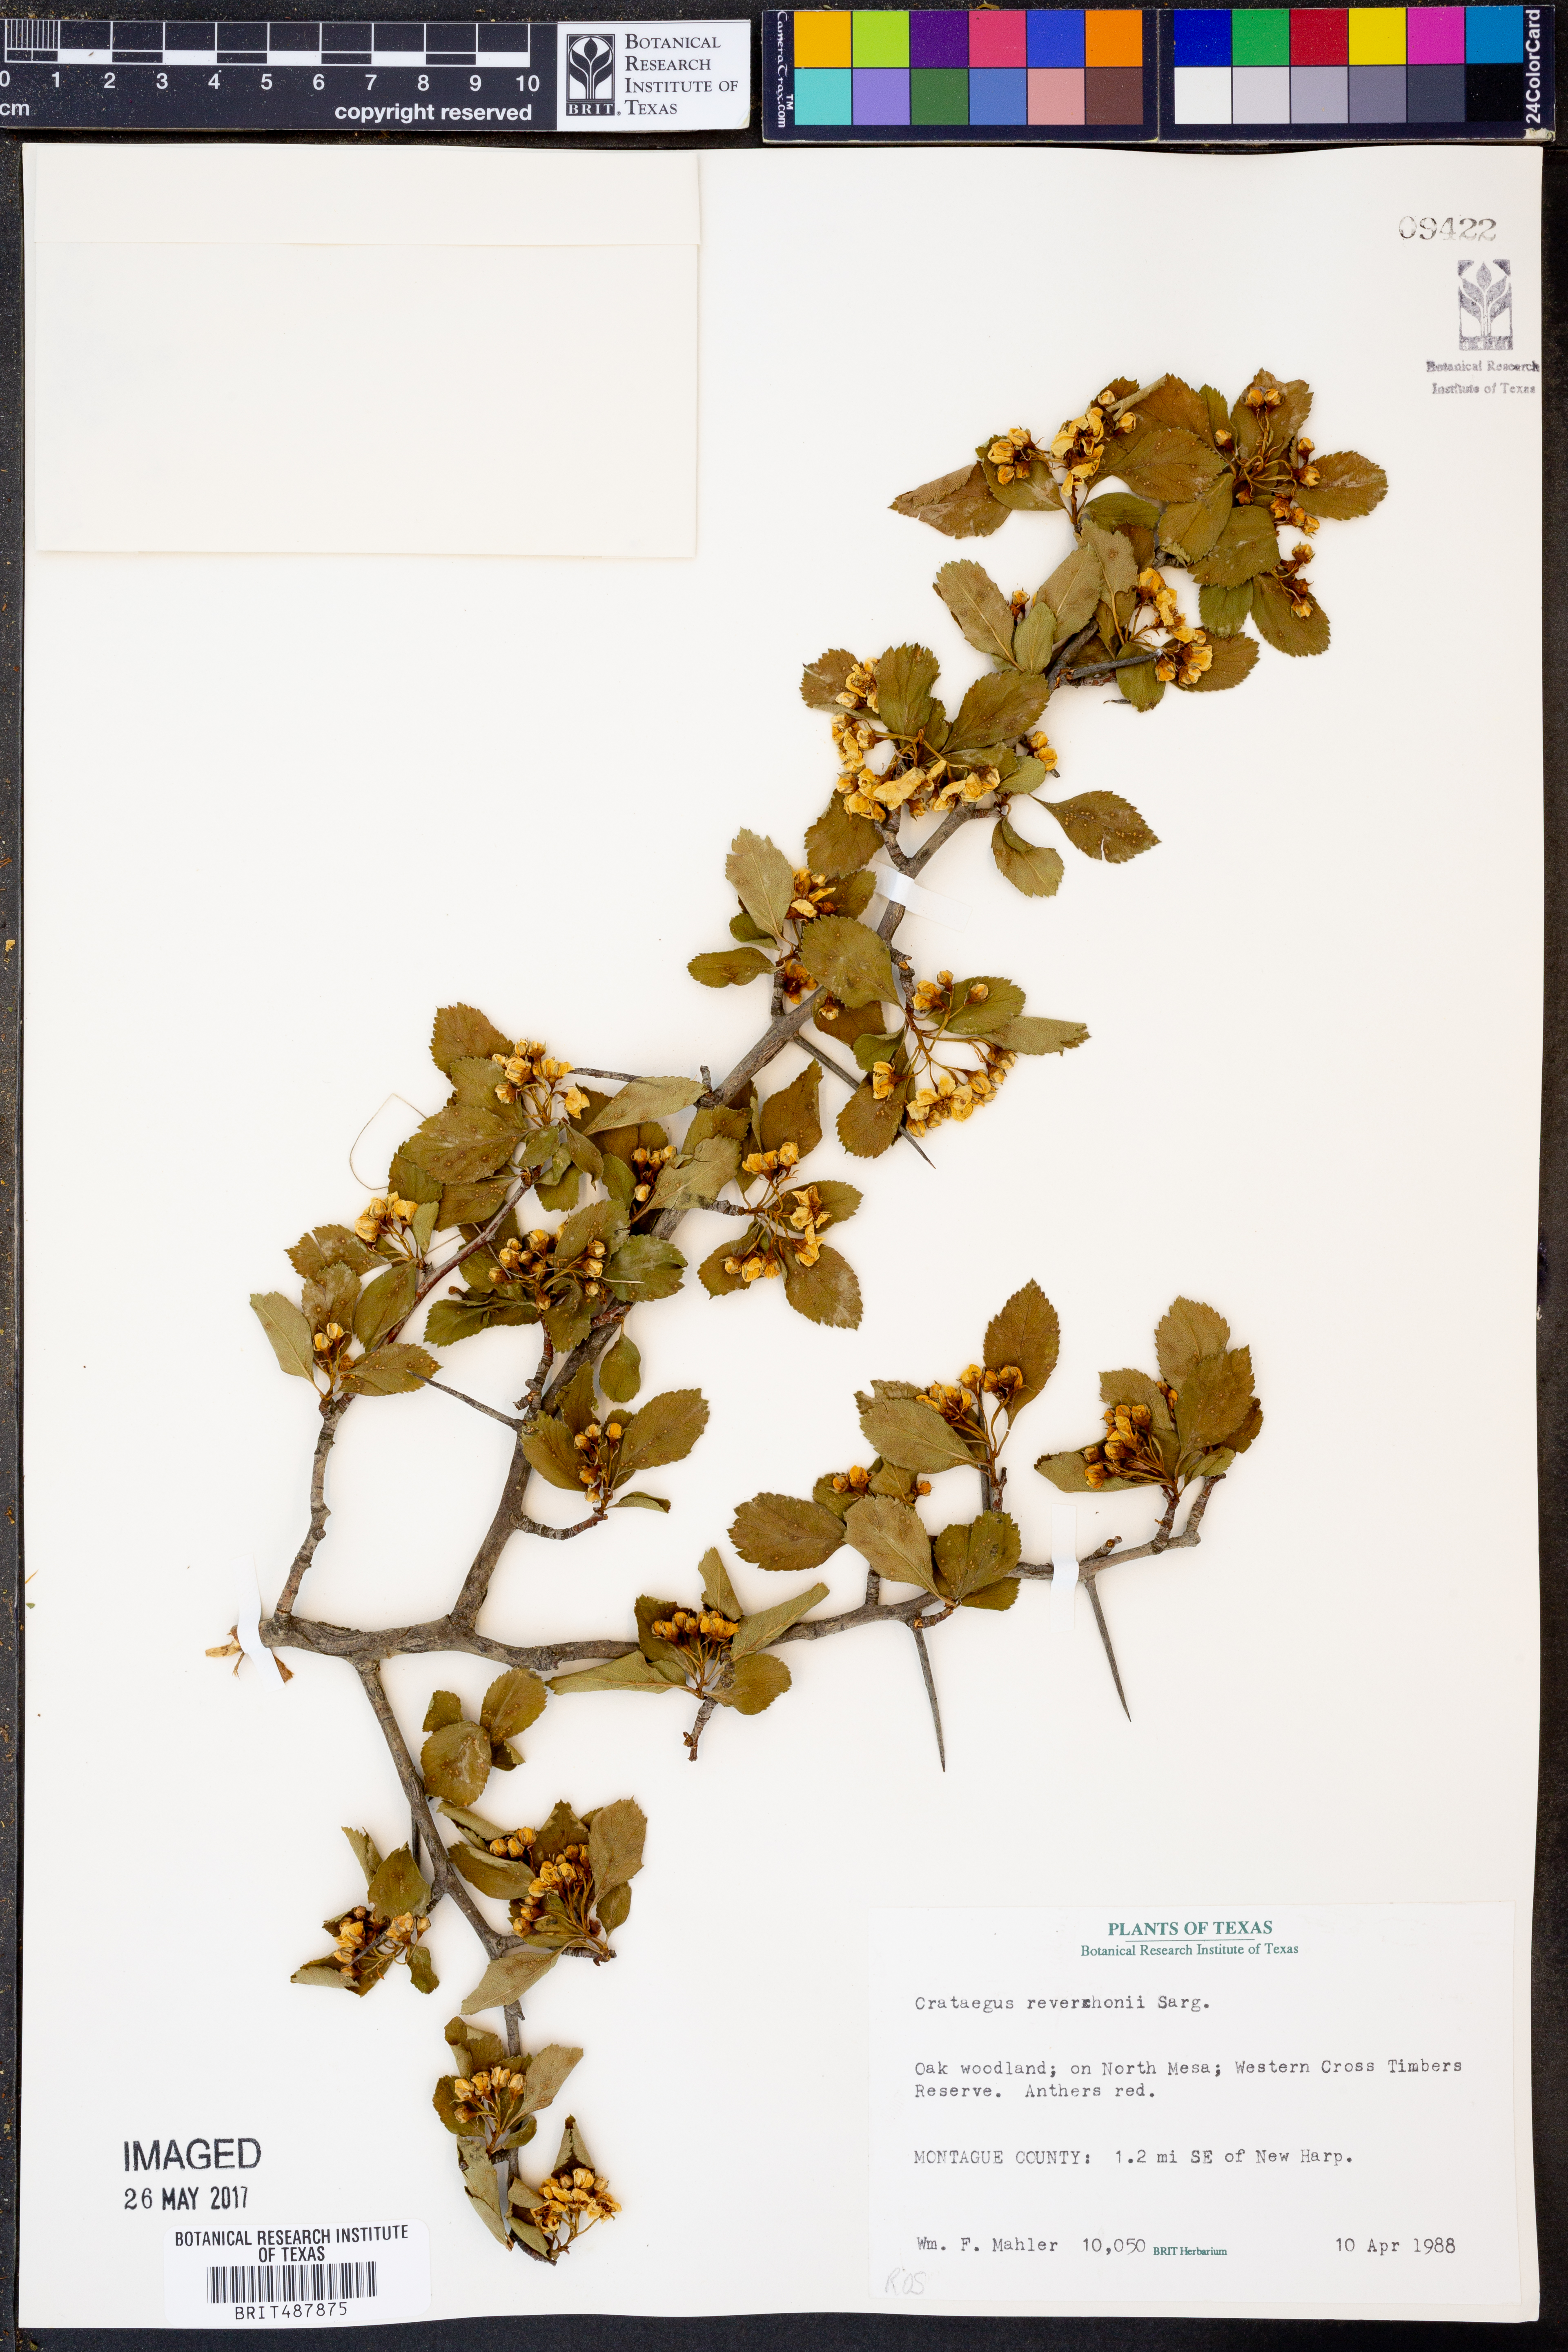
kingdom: Plantae
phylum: Tracheophyta
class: Magnoliopsida
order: Rosales
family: Rosaceae
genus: Crataegus
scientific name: Crataegus reverchonii
